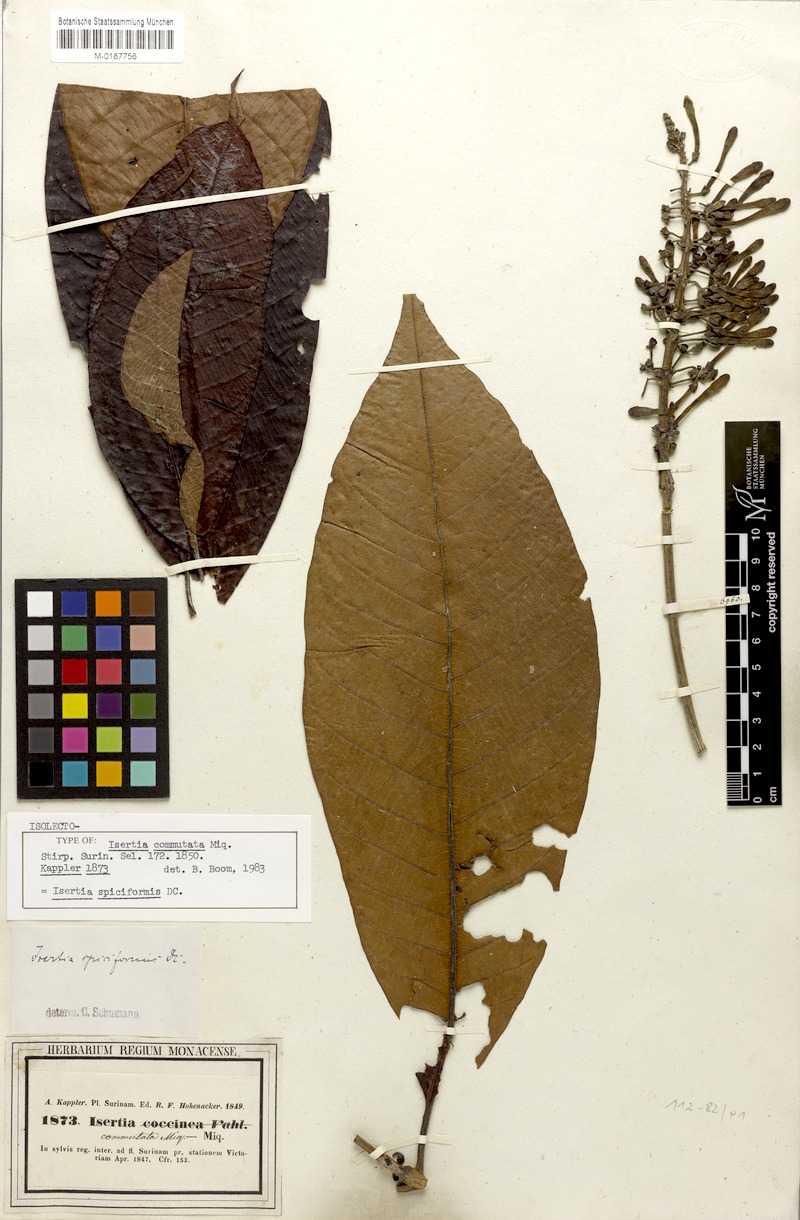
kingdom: Plantae
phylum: Tracheophyta
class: Magnoliopsida
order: Gentianales
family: Rubiaceae
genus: Isertia
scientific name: Isertia spiciformis
